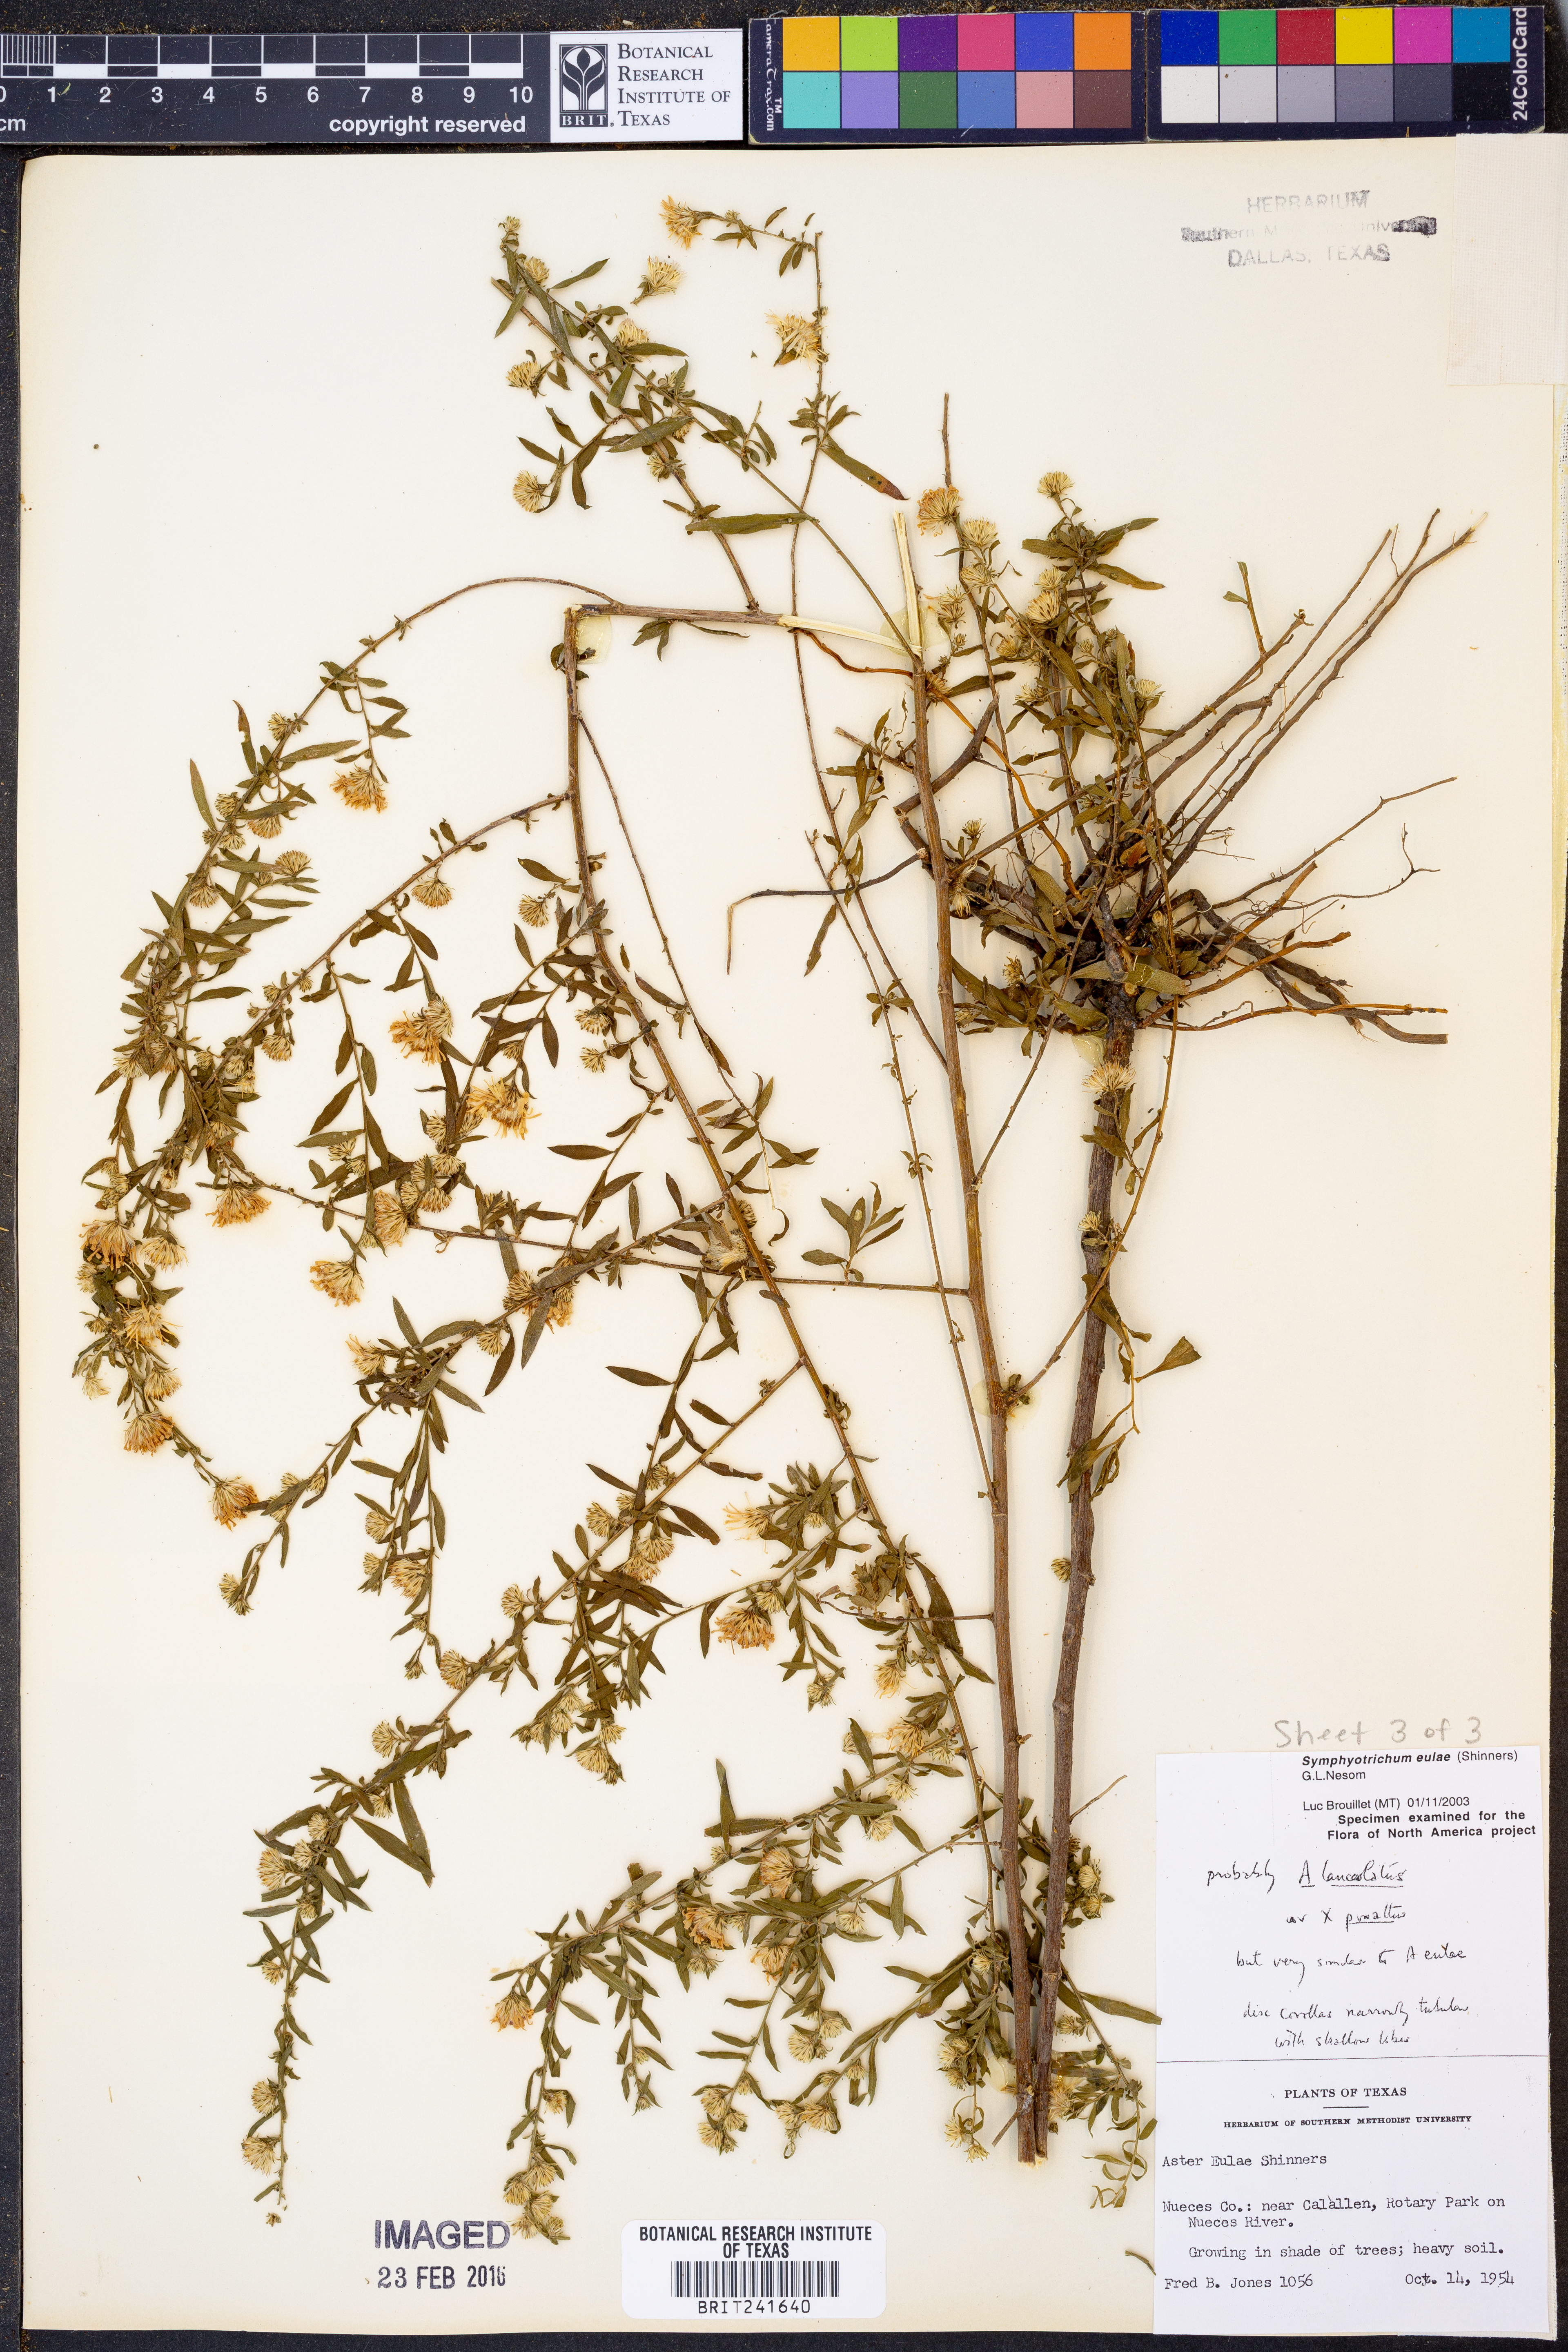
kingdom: Plantae
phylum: Tracheophyta
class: Magnoliopsida
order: Asterales
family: Asteraceae
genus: Symphyotrichum
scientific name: Symphyotrichum eulae
